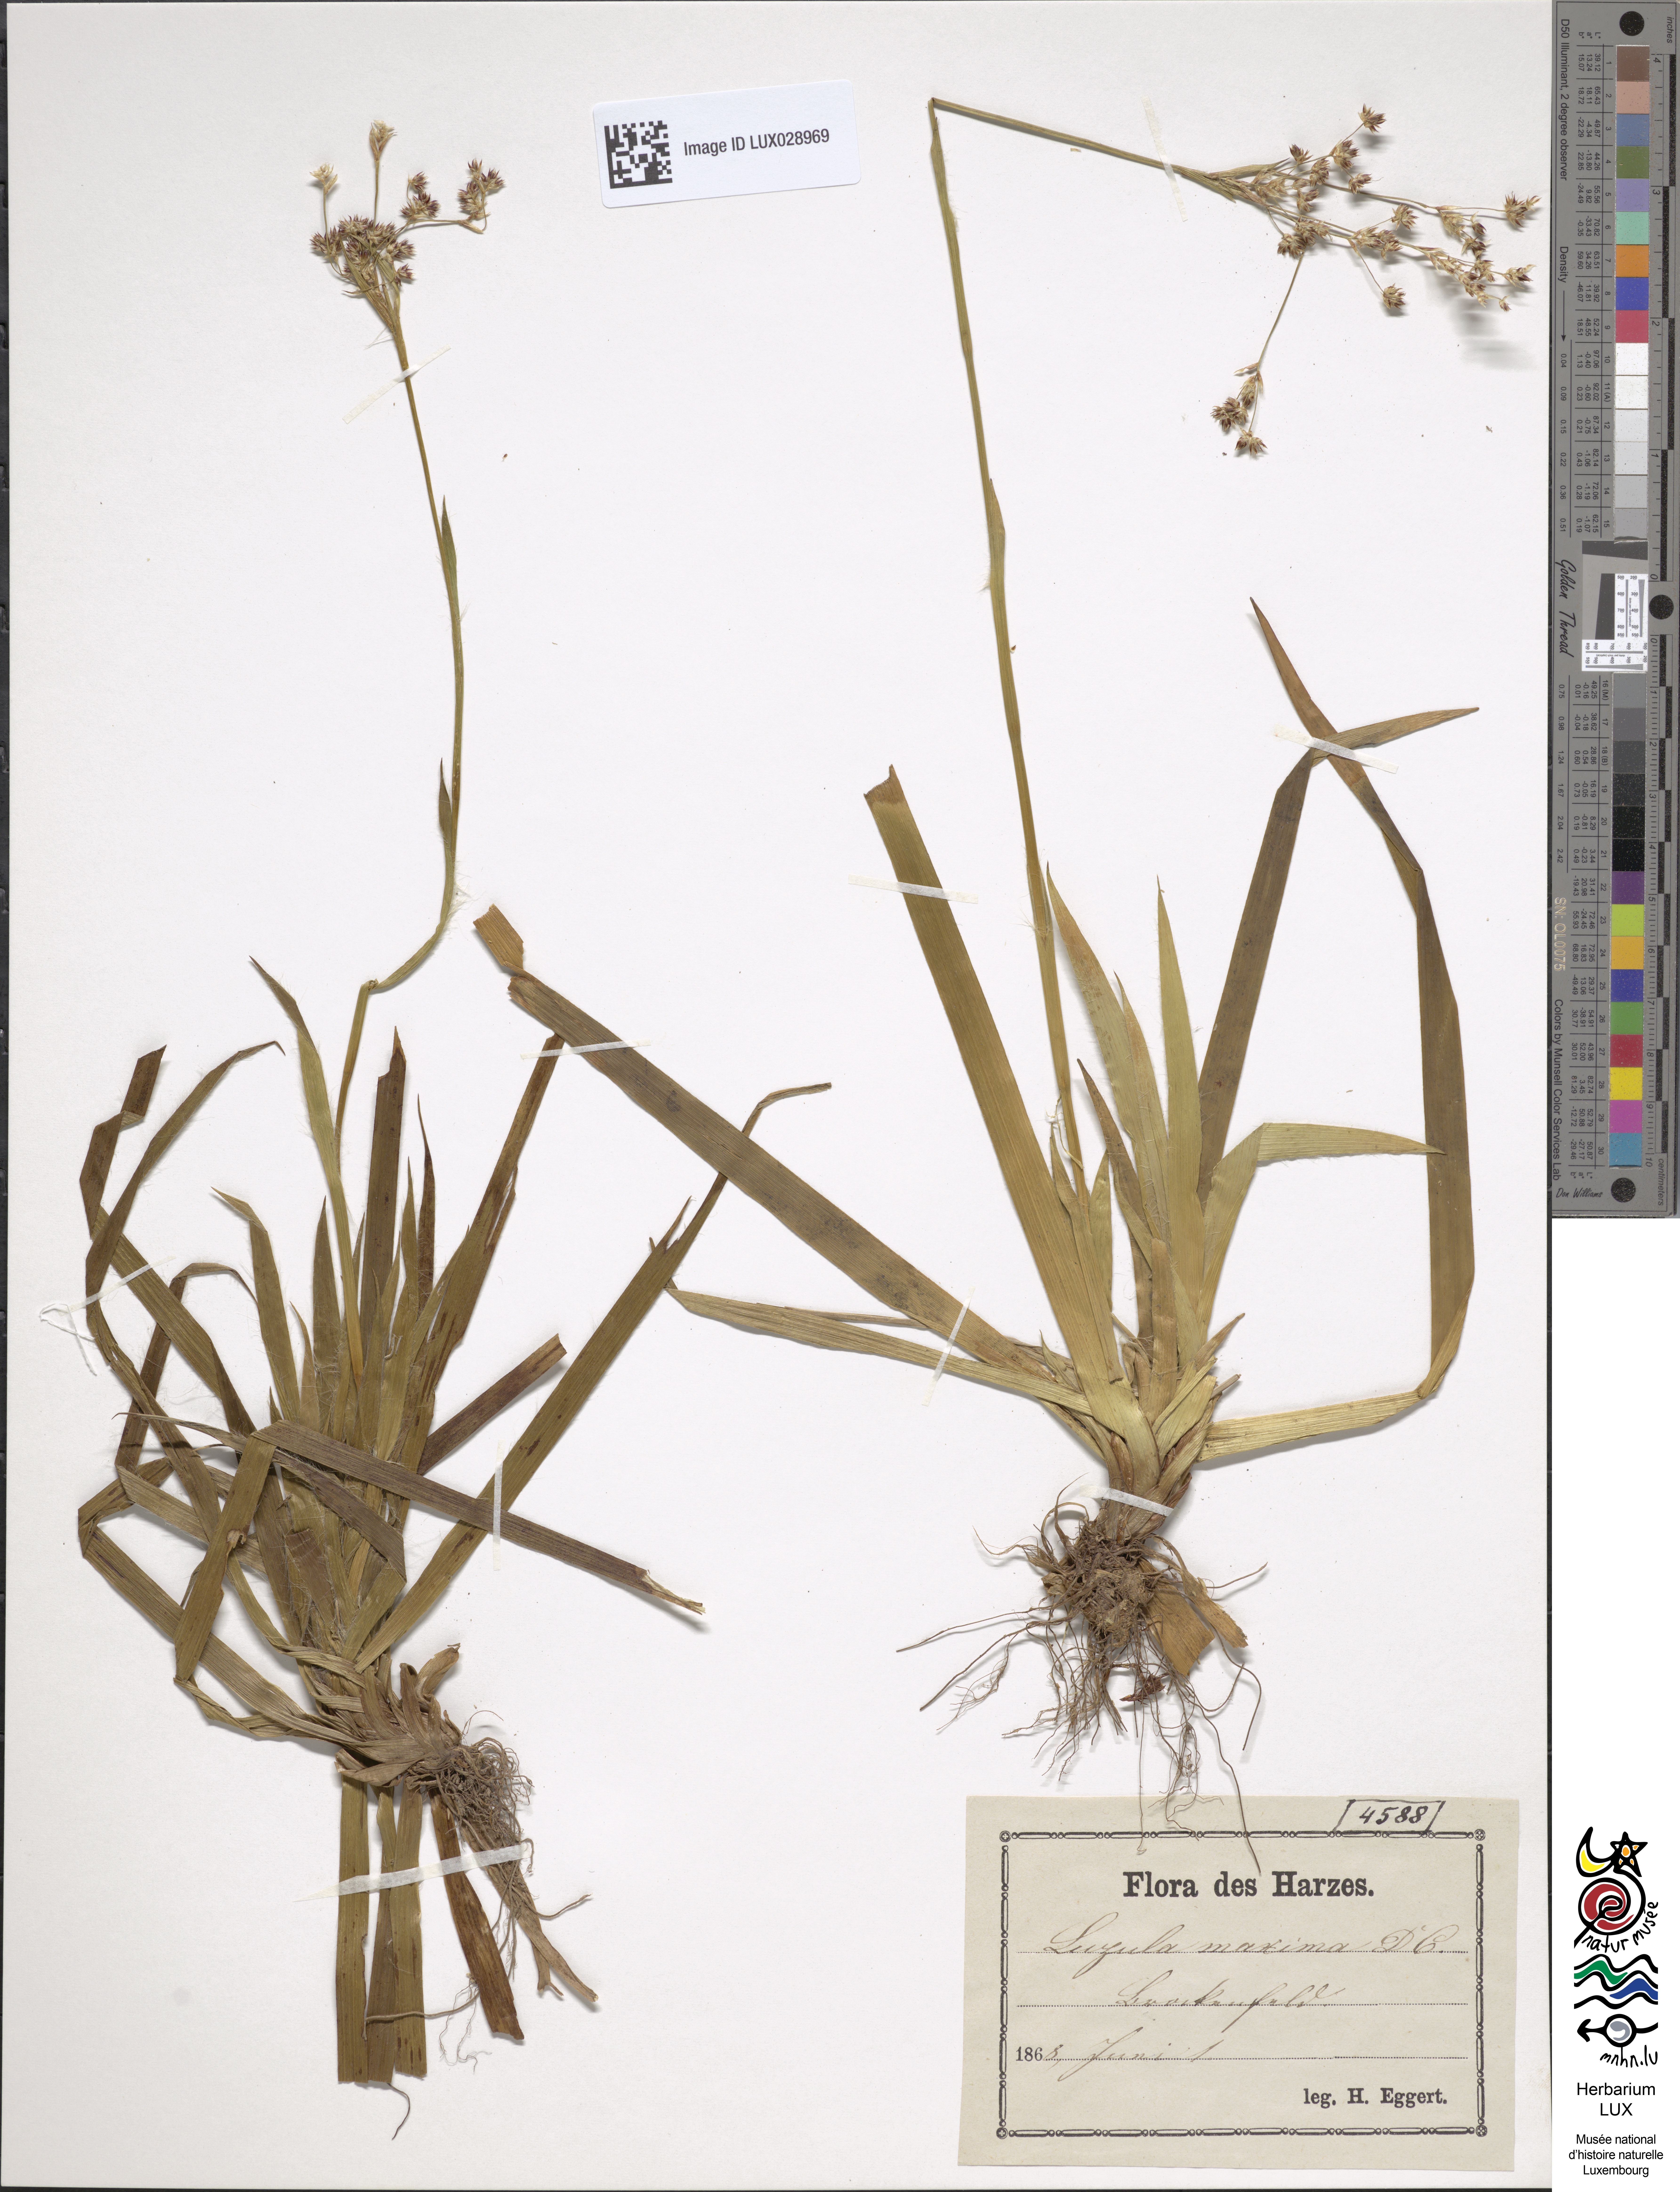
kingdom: Plantae
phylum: Tracheophyta
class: Liliopsida
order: Poales
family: Juncaceae
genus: Luzula
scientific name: Luzula sylvatica
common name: Great wood-rush
